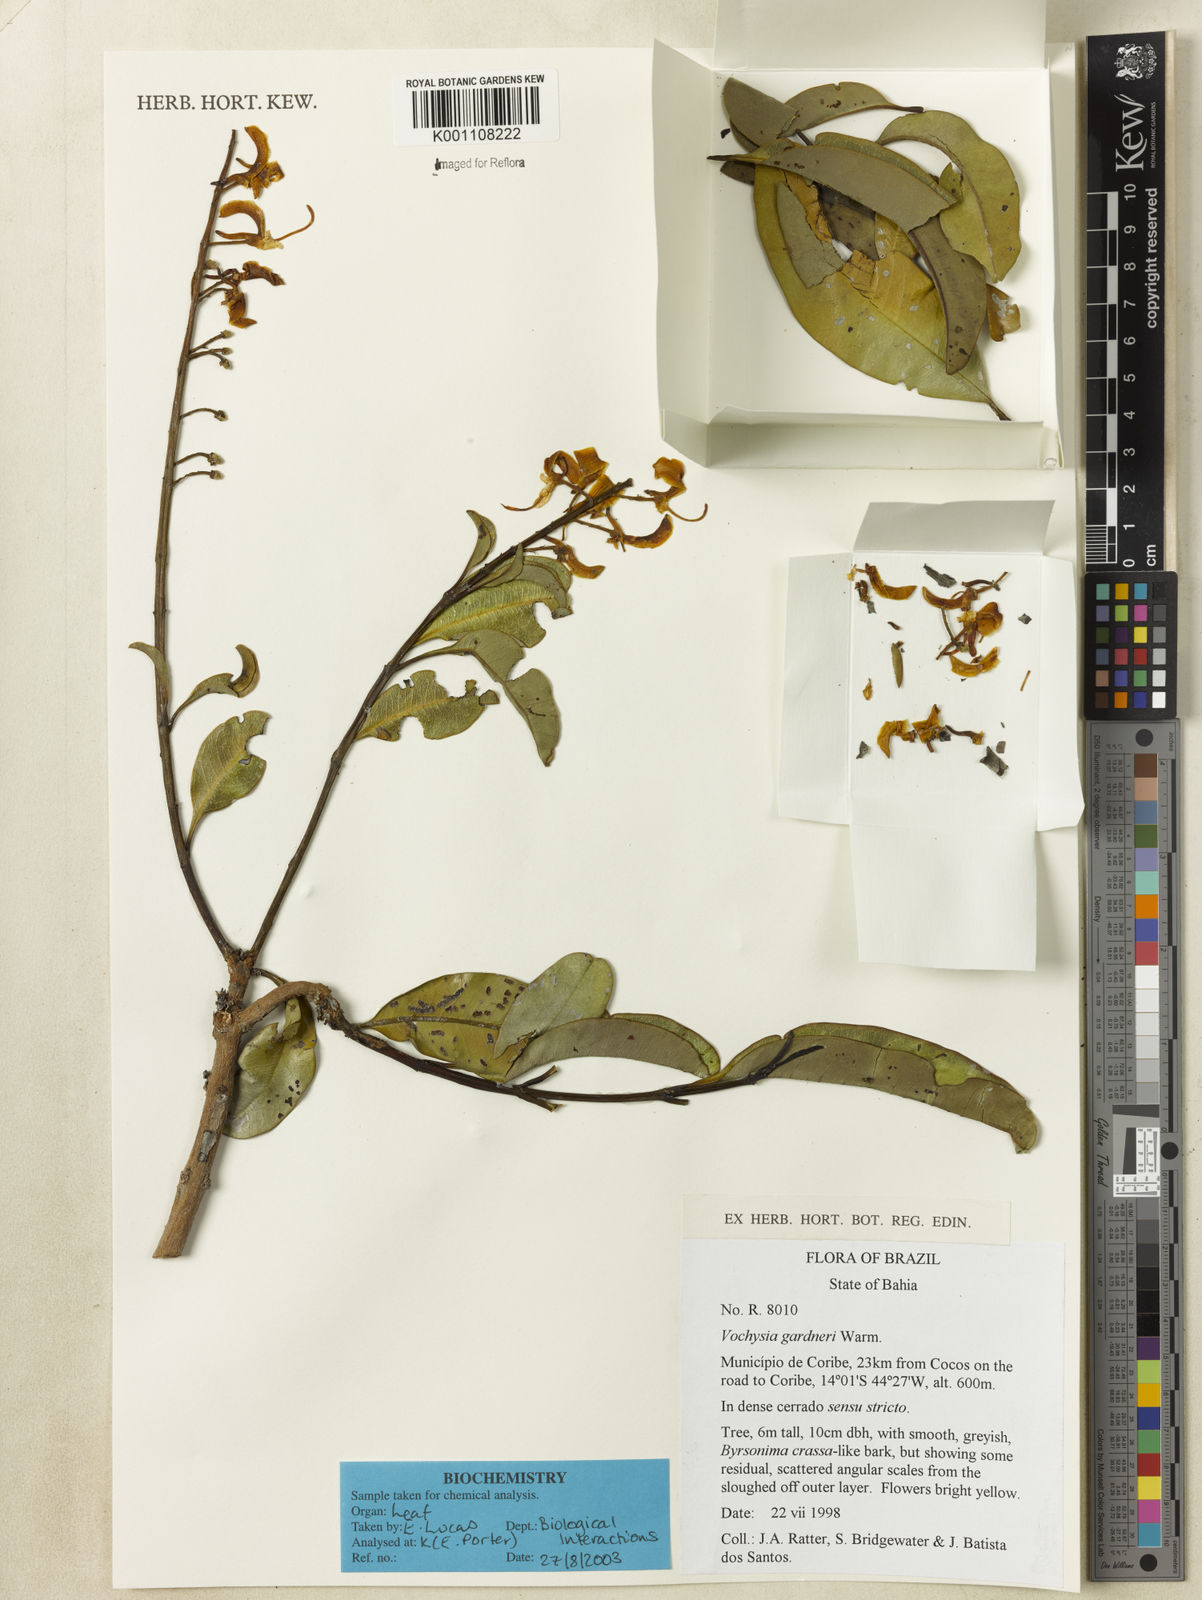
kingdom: Plantae
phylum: Tracheophyta
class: Magnoliopsida
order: Myrtales
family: Vochysiaceae
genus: Vochysia
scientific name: Vochysia gardneri
